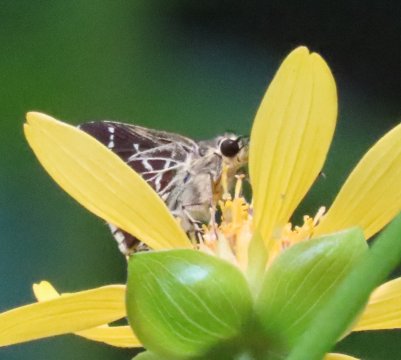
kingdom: Animalia
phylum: Arthropoda
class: Insecta
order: Lepidoptera
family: Hesperiidae
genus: Mastor
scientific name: Mastor aesculapius
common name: Lace-winged Roadside-Skipper
